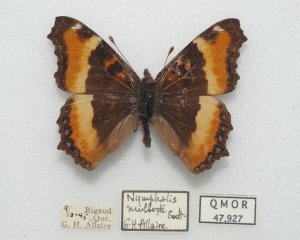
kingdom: Animalia
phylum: Arthropoda
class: Insecta
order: Lepidoptera
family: Nymphalidae
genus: Aglais
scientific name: Aglais milberti
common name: Milbert's Tortoiseshell
